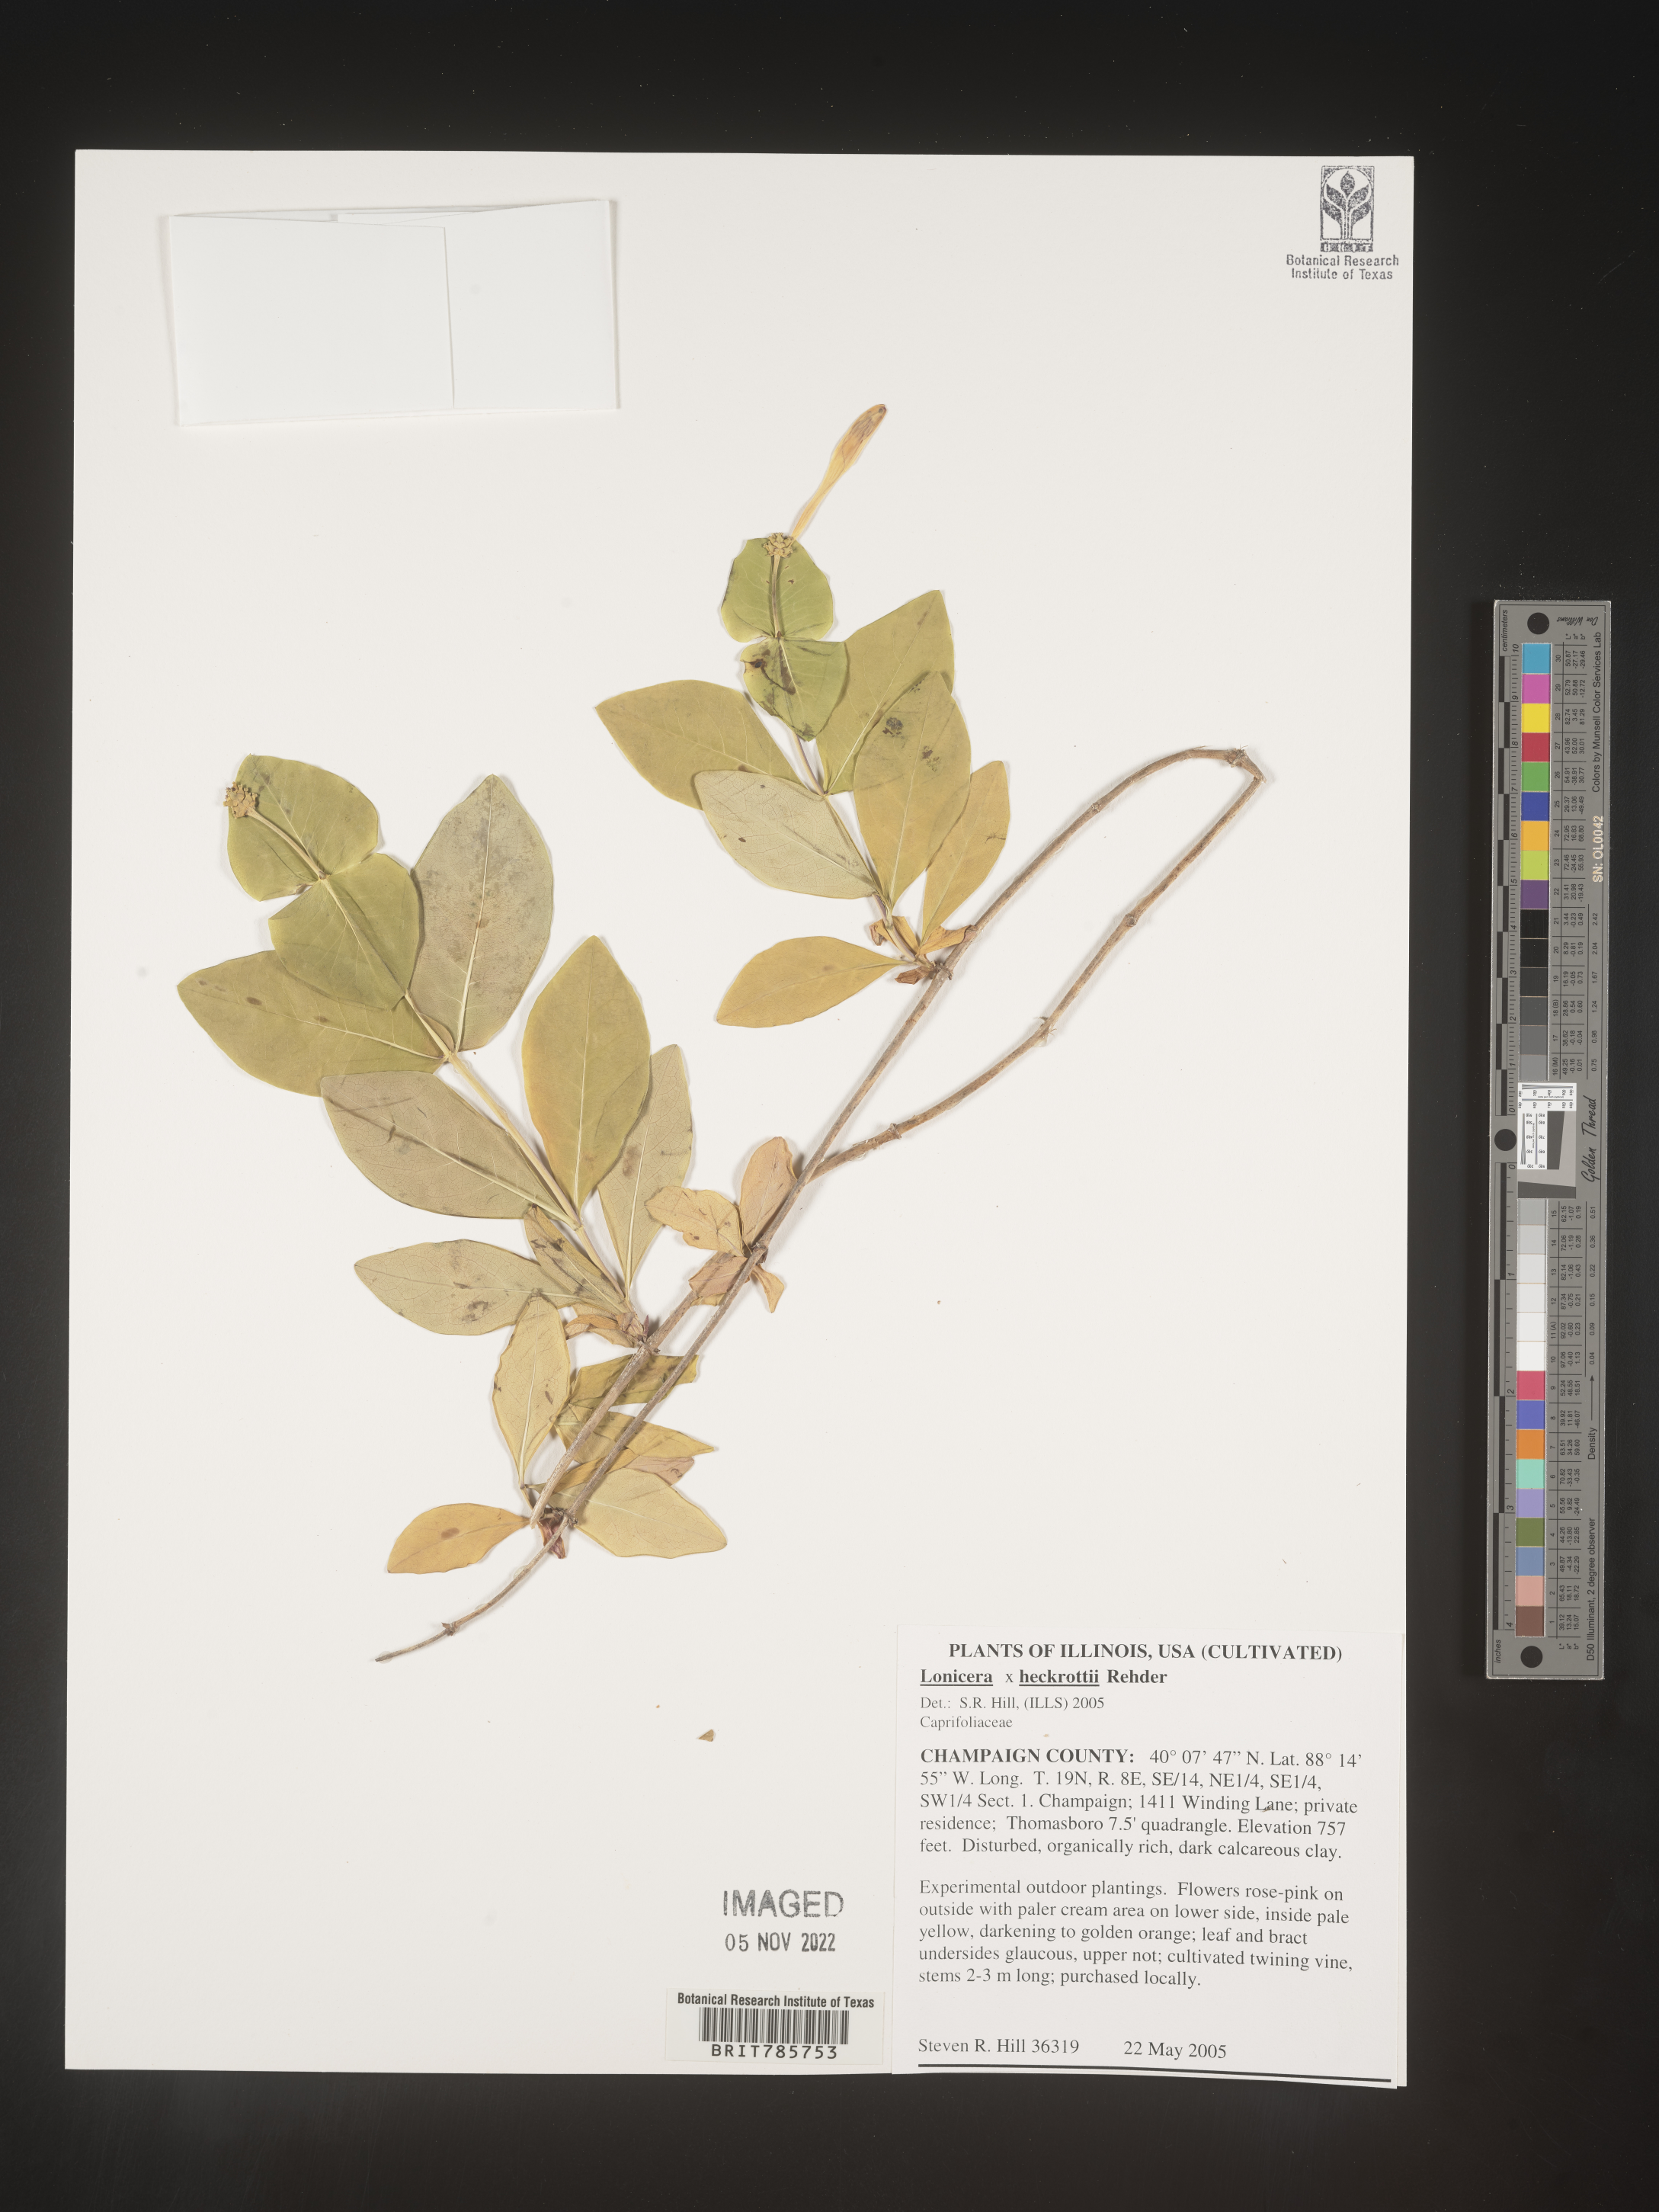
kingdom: Plantae
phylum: Tracheophyta
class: Magnoliopsida
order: Dipsacales
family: Caprifoliaceae
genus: Lonicera
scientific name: Lonicera
